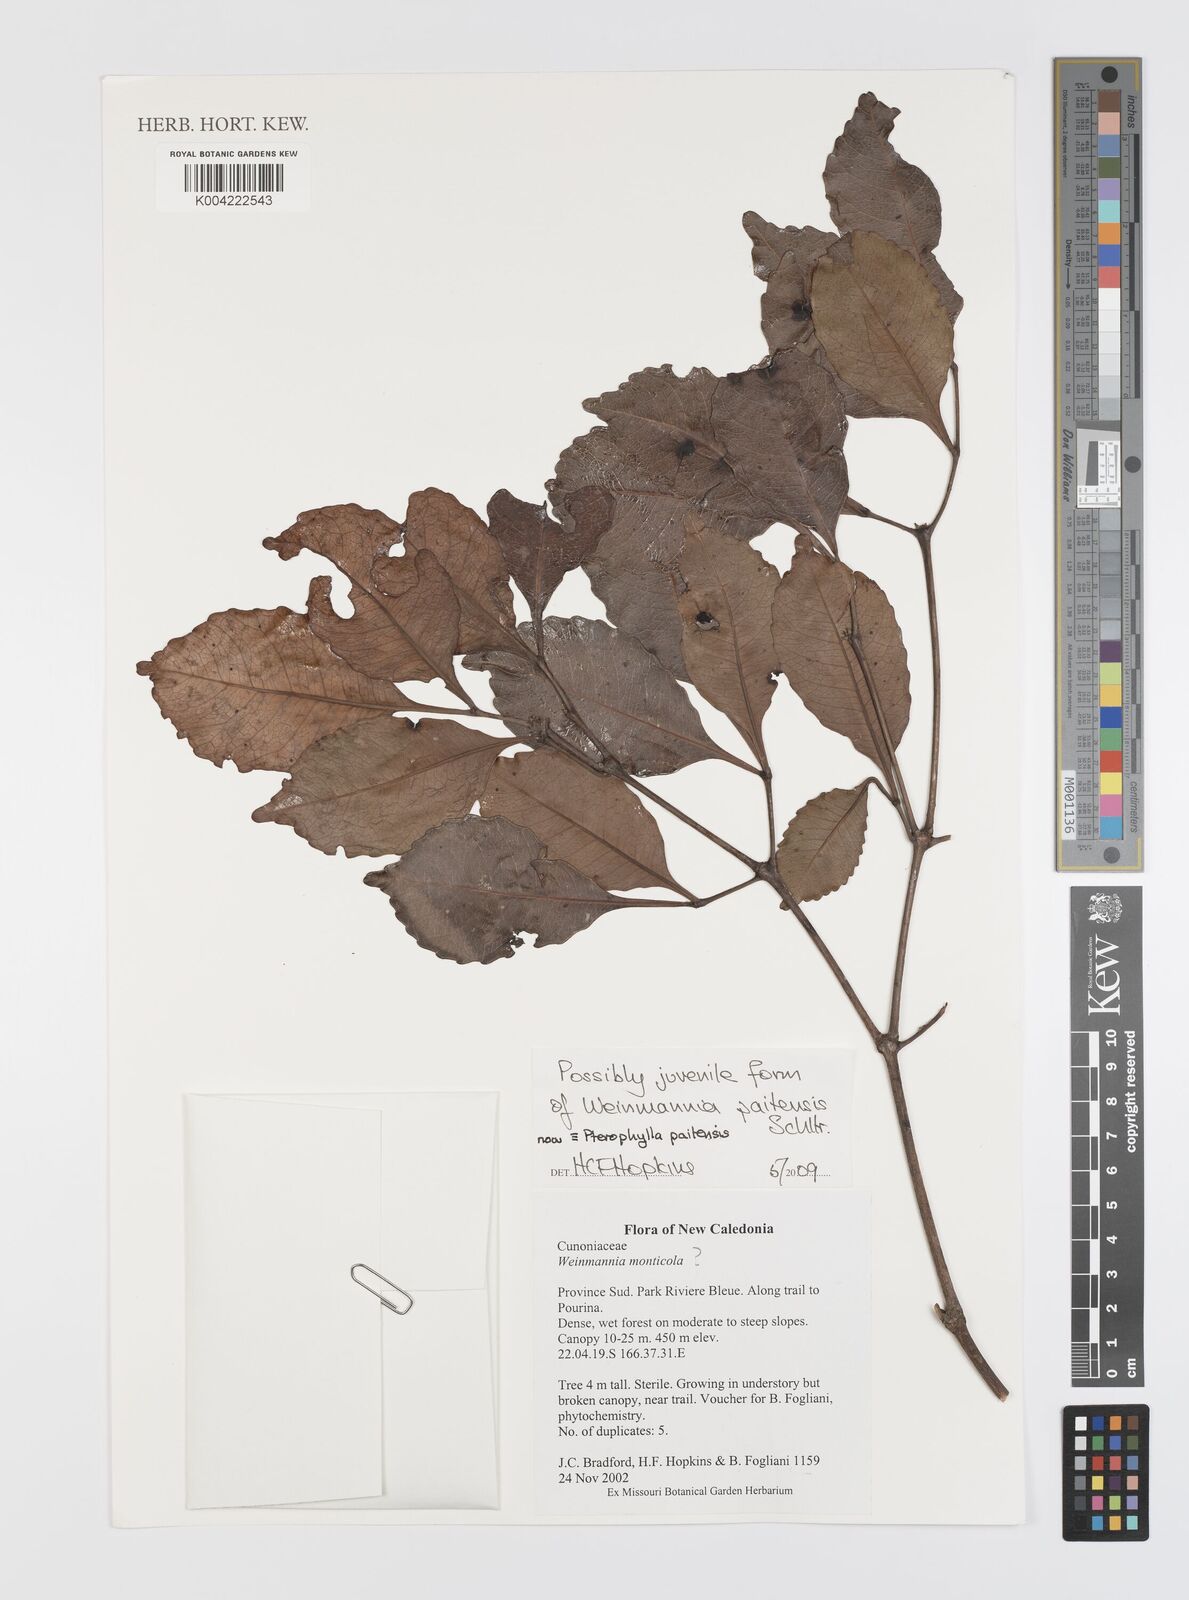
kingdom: Plantae
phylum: Tracheophyta
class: Magnoliopsida
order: Oxalidales
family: Cunoniaceae
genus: Weinmannia
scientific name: Weinmannia
